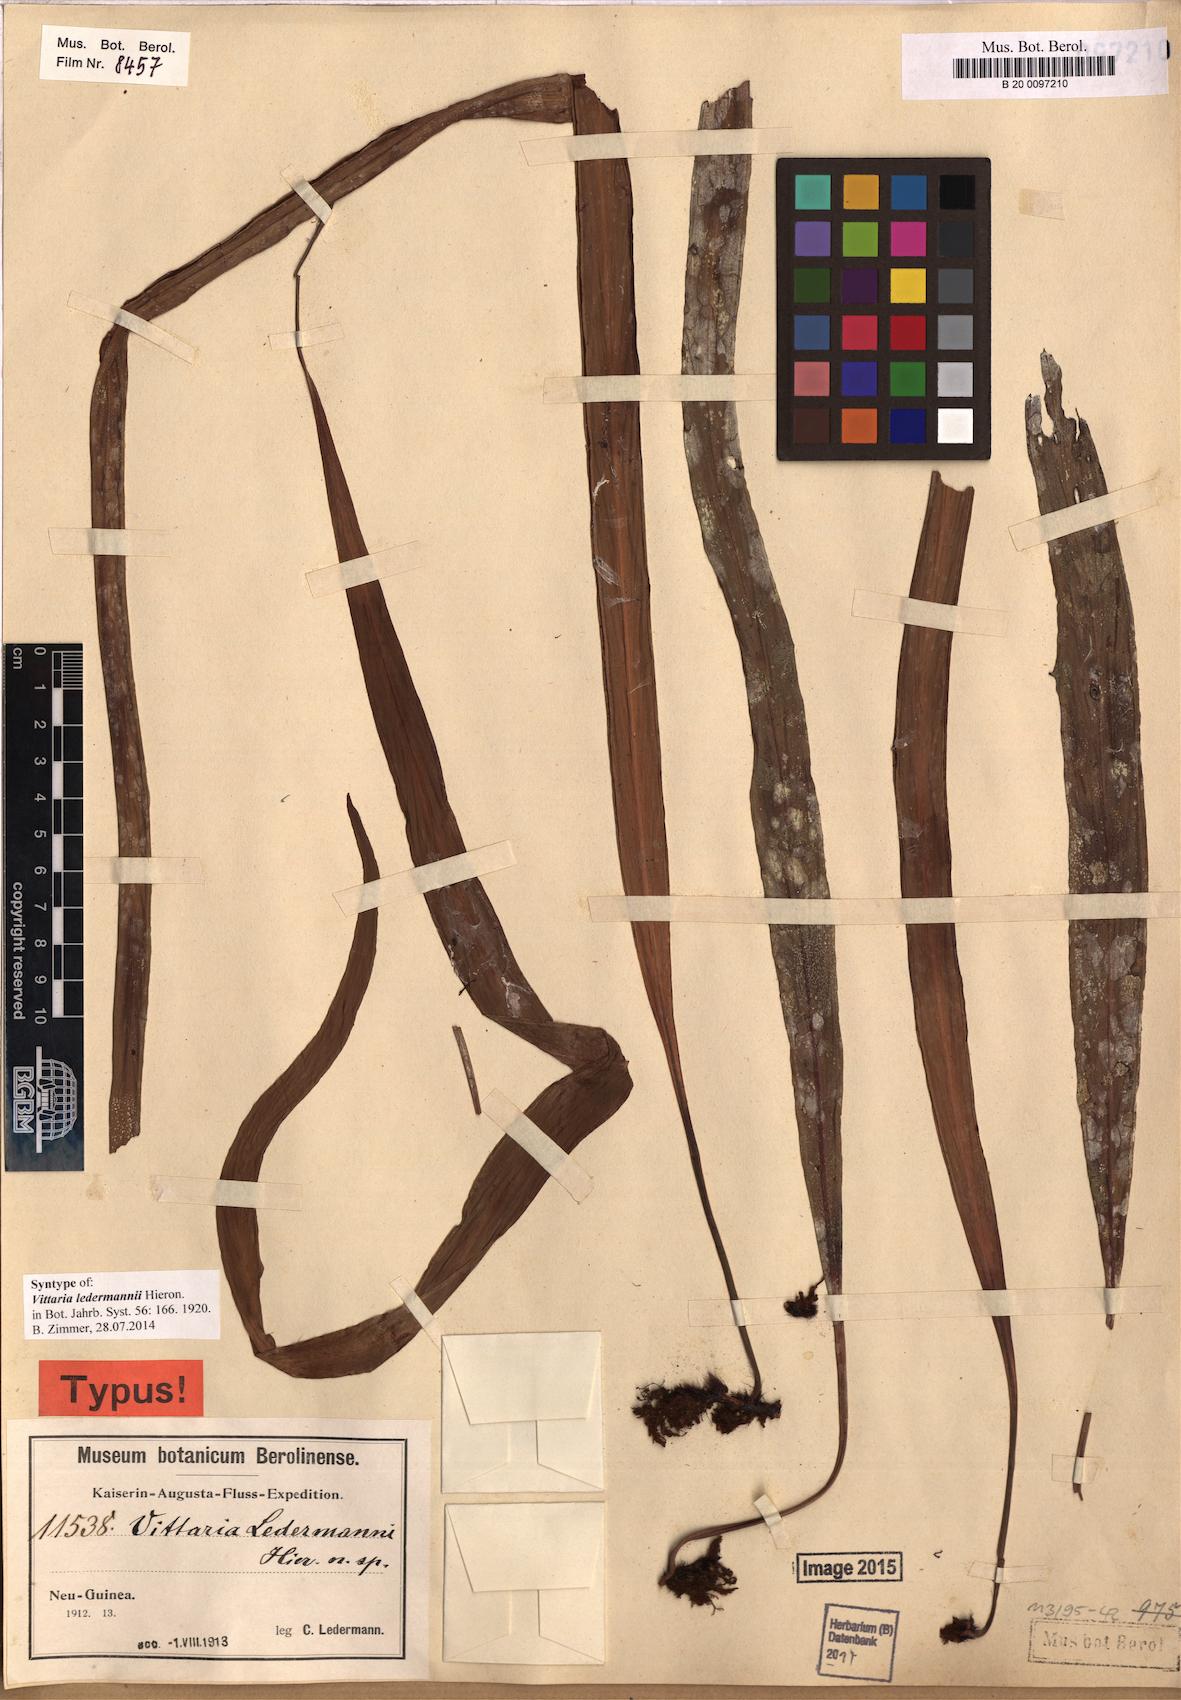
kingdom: Plantae
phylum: Tracheophyta
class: Polypodiopsida
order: Polypodiales
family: Pteridaceae
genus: Haplopteris
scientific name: Haplopteris elongata
